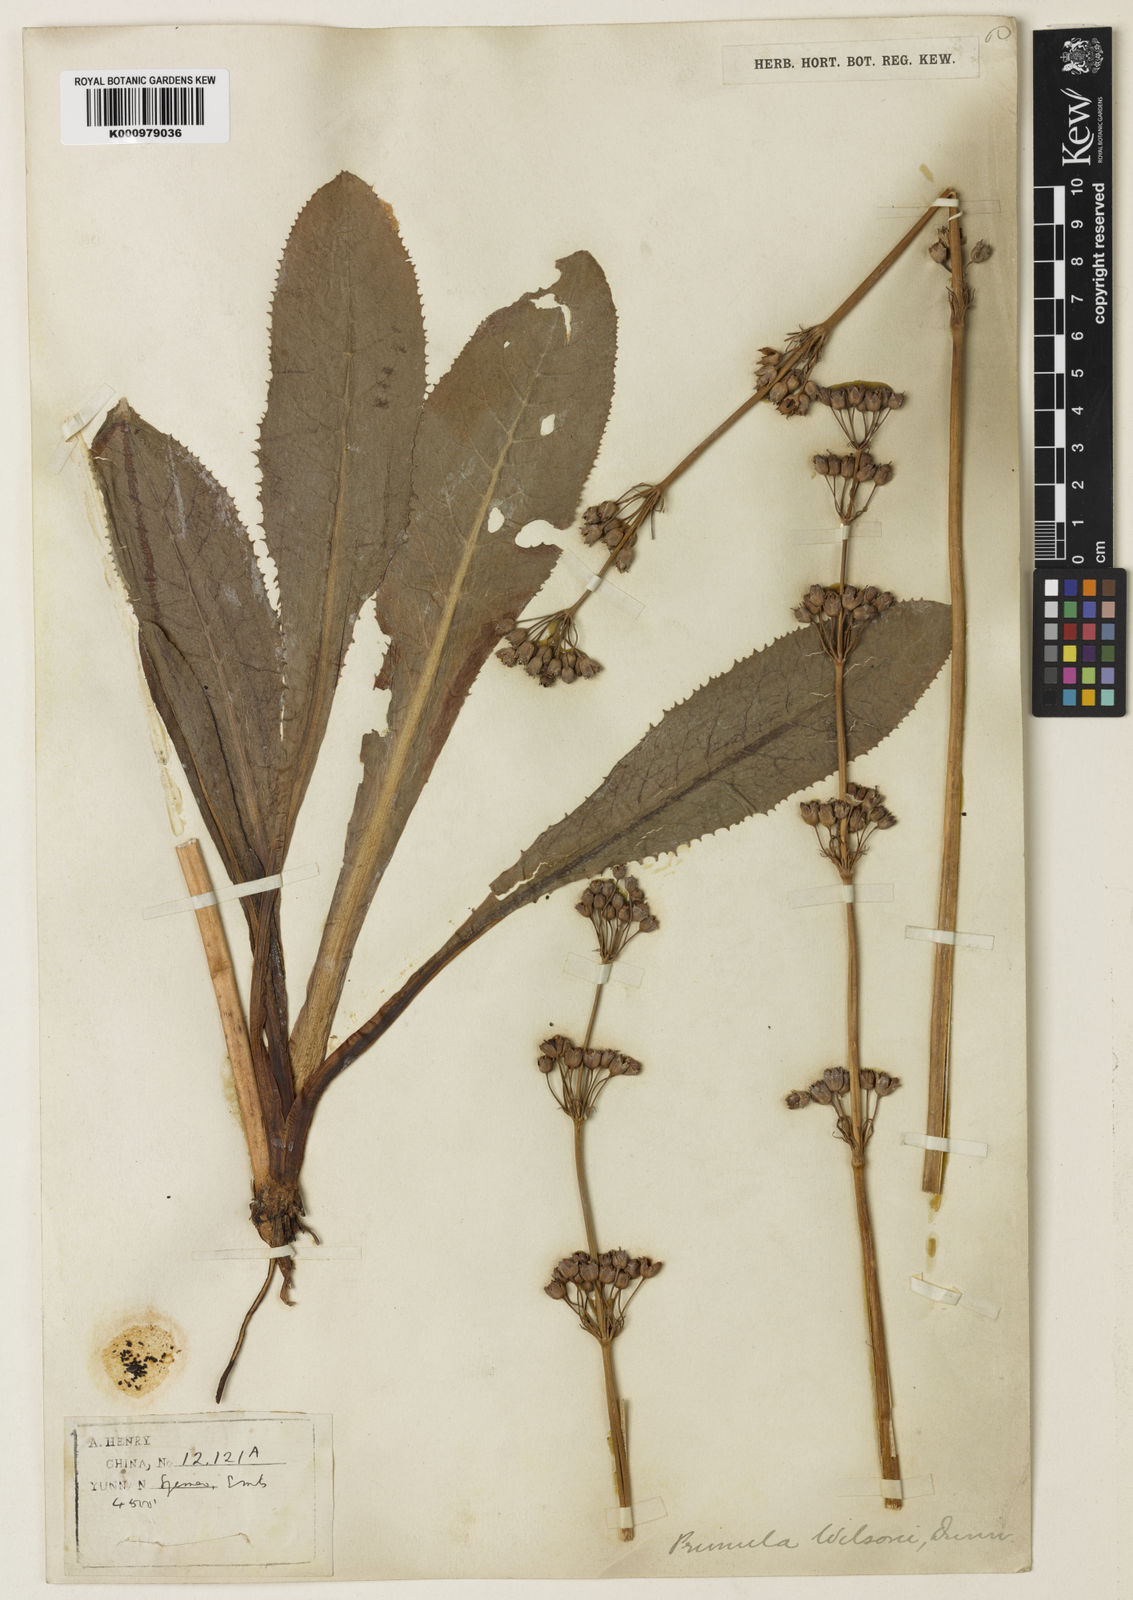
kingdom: Plantae
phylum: Tracheophyta
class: Magnoliopsida
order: Ericales
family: Primulaceae
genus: Primula
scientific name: Primula wilsonii
